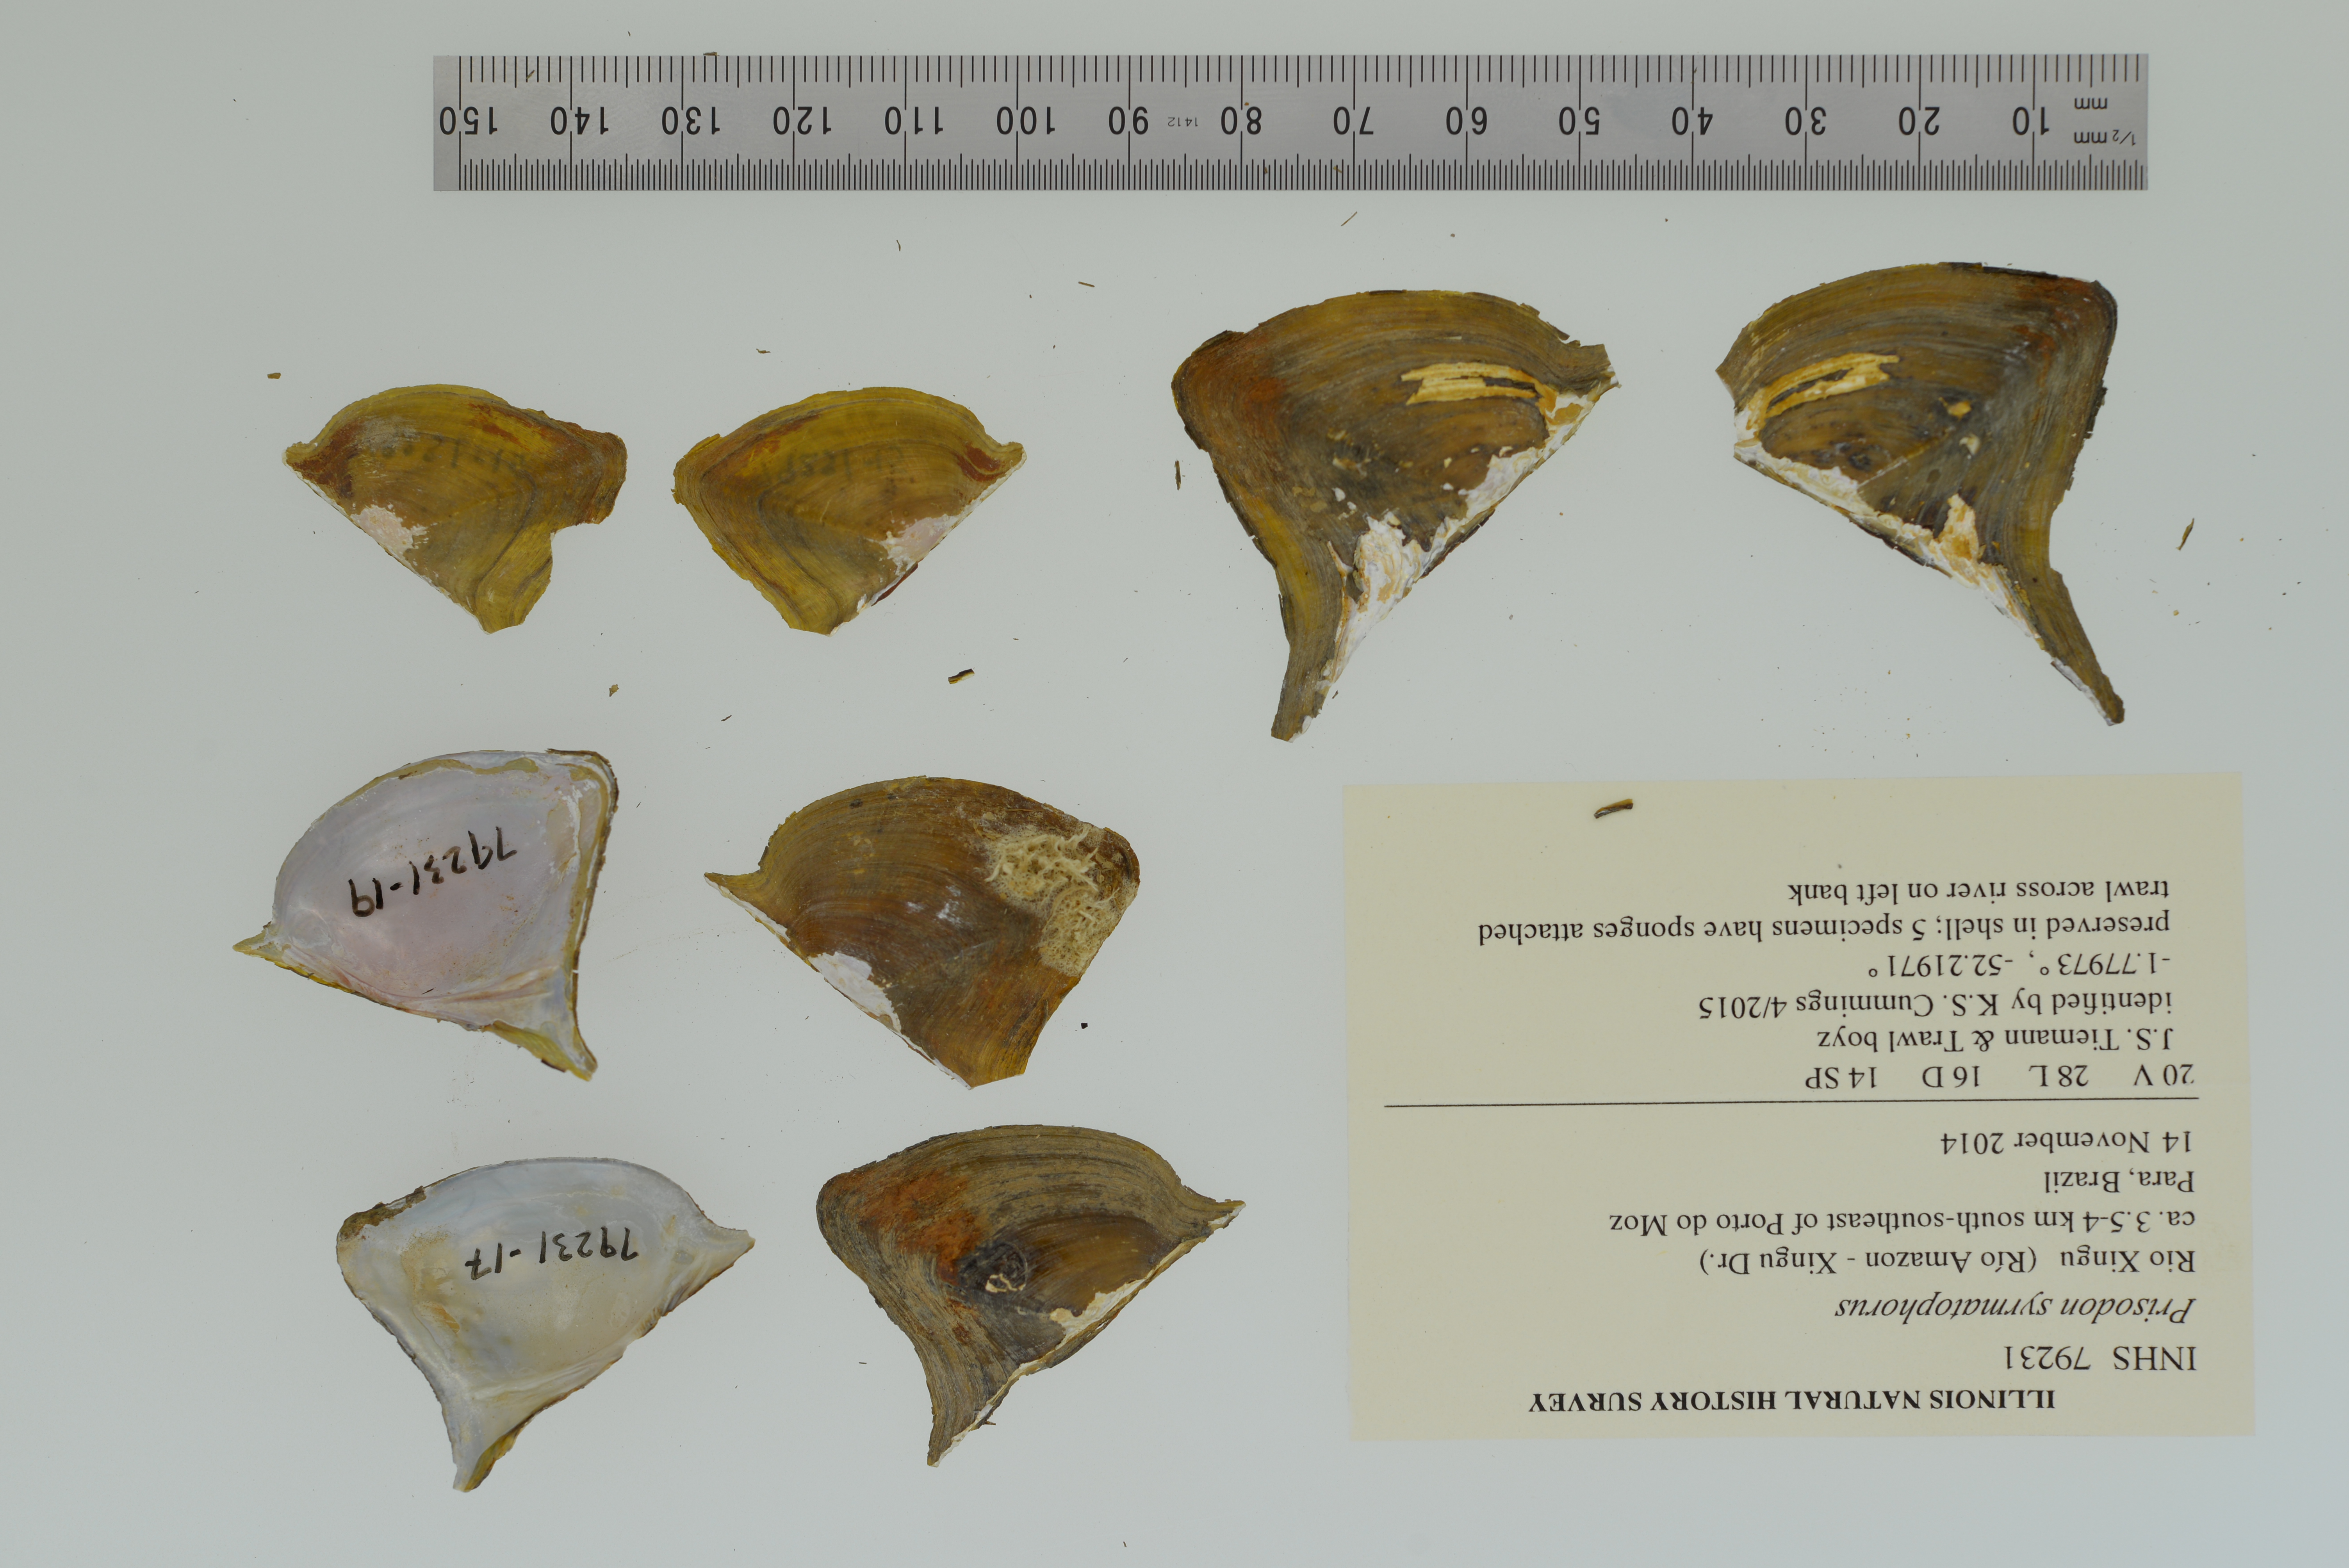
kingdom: Animalia
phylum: Mollusca
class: Bivalvia
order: Unionida
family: Hyriidae
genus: Prisodon
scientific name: Prisodon syrmatophorus
